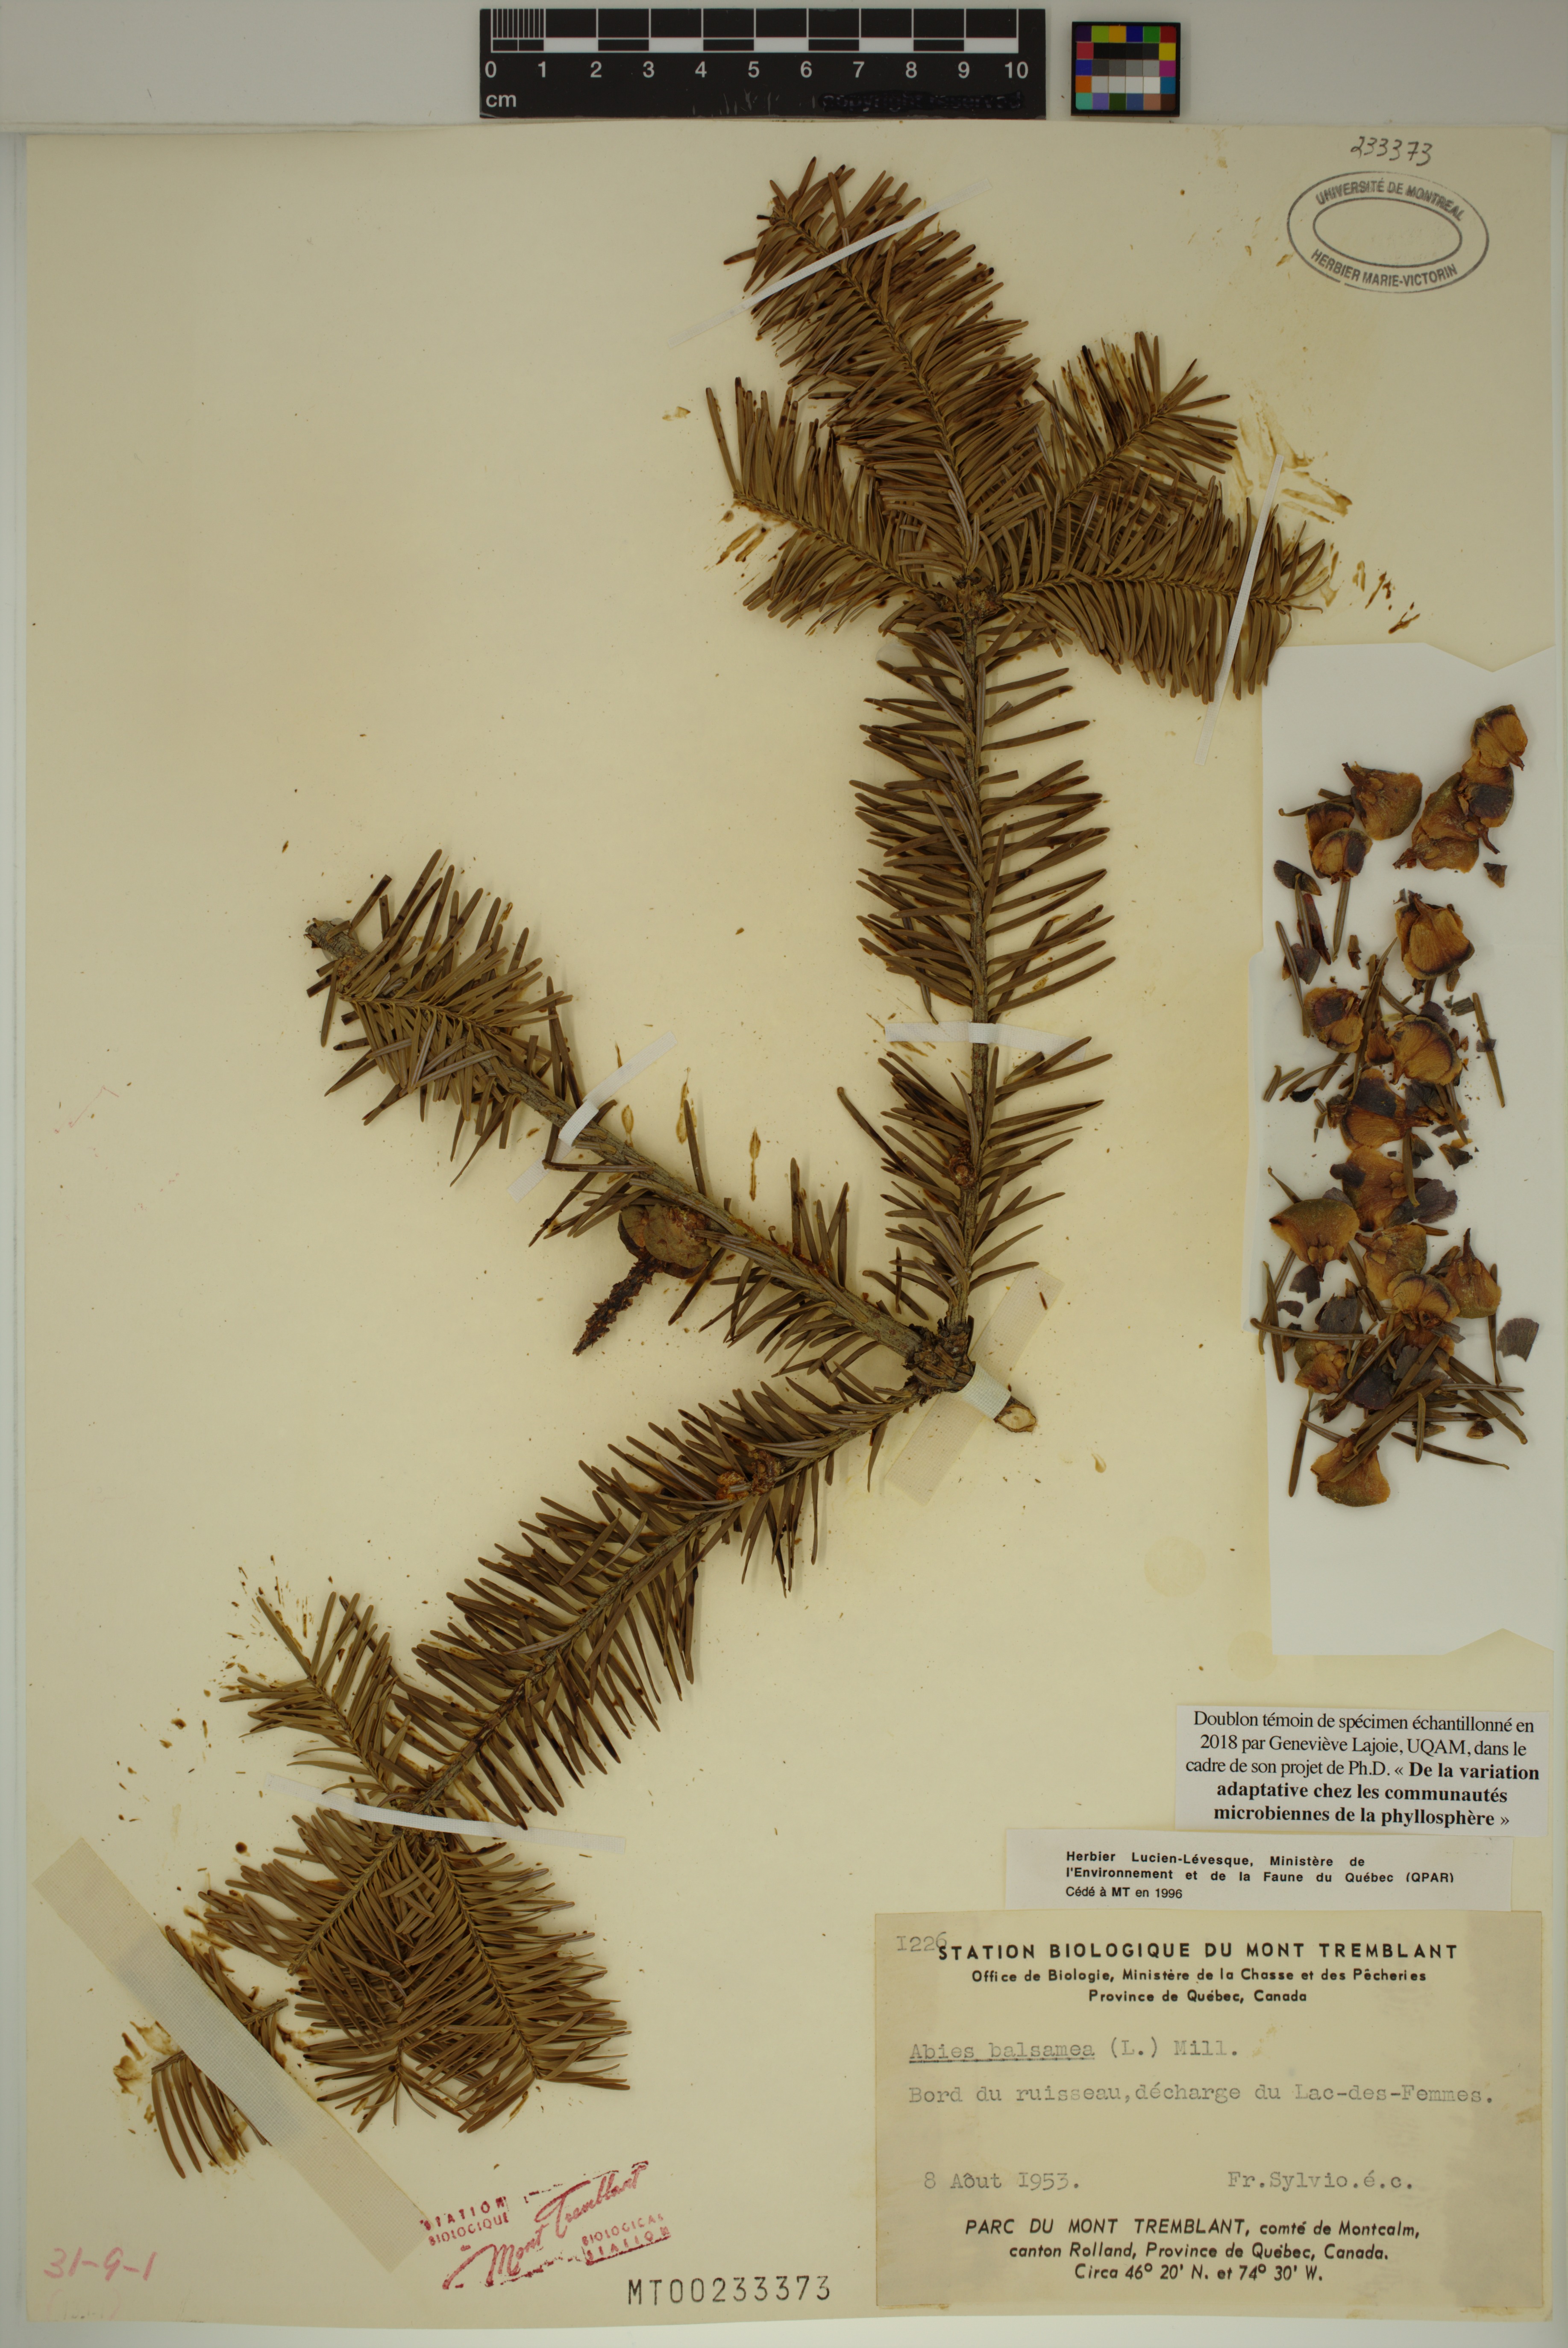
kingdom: Plantae
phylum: Tracheophyta
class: Pinopsida
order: Pinales
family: Pinaceae
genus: Abies
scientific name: Abies balsamea
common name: Balsam fir
